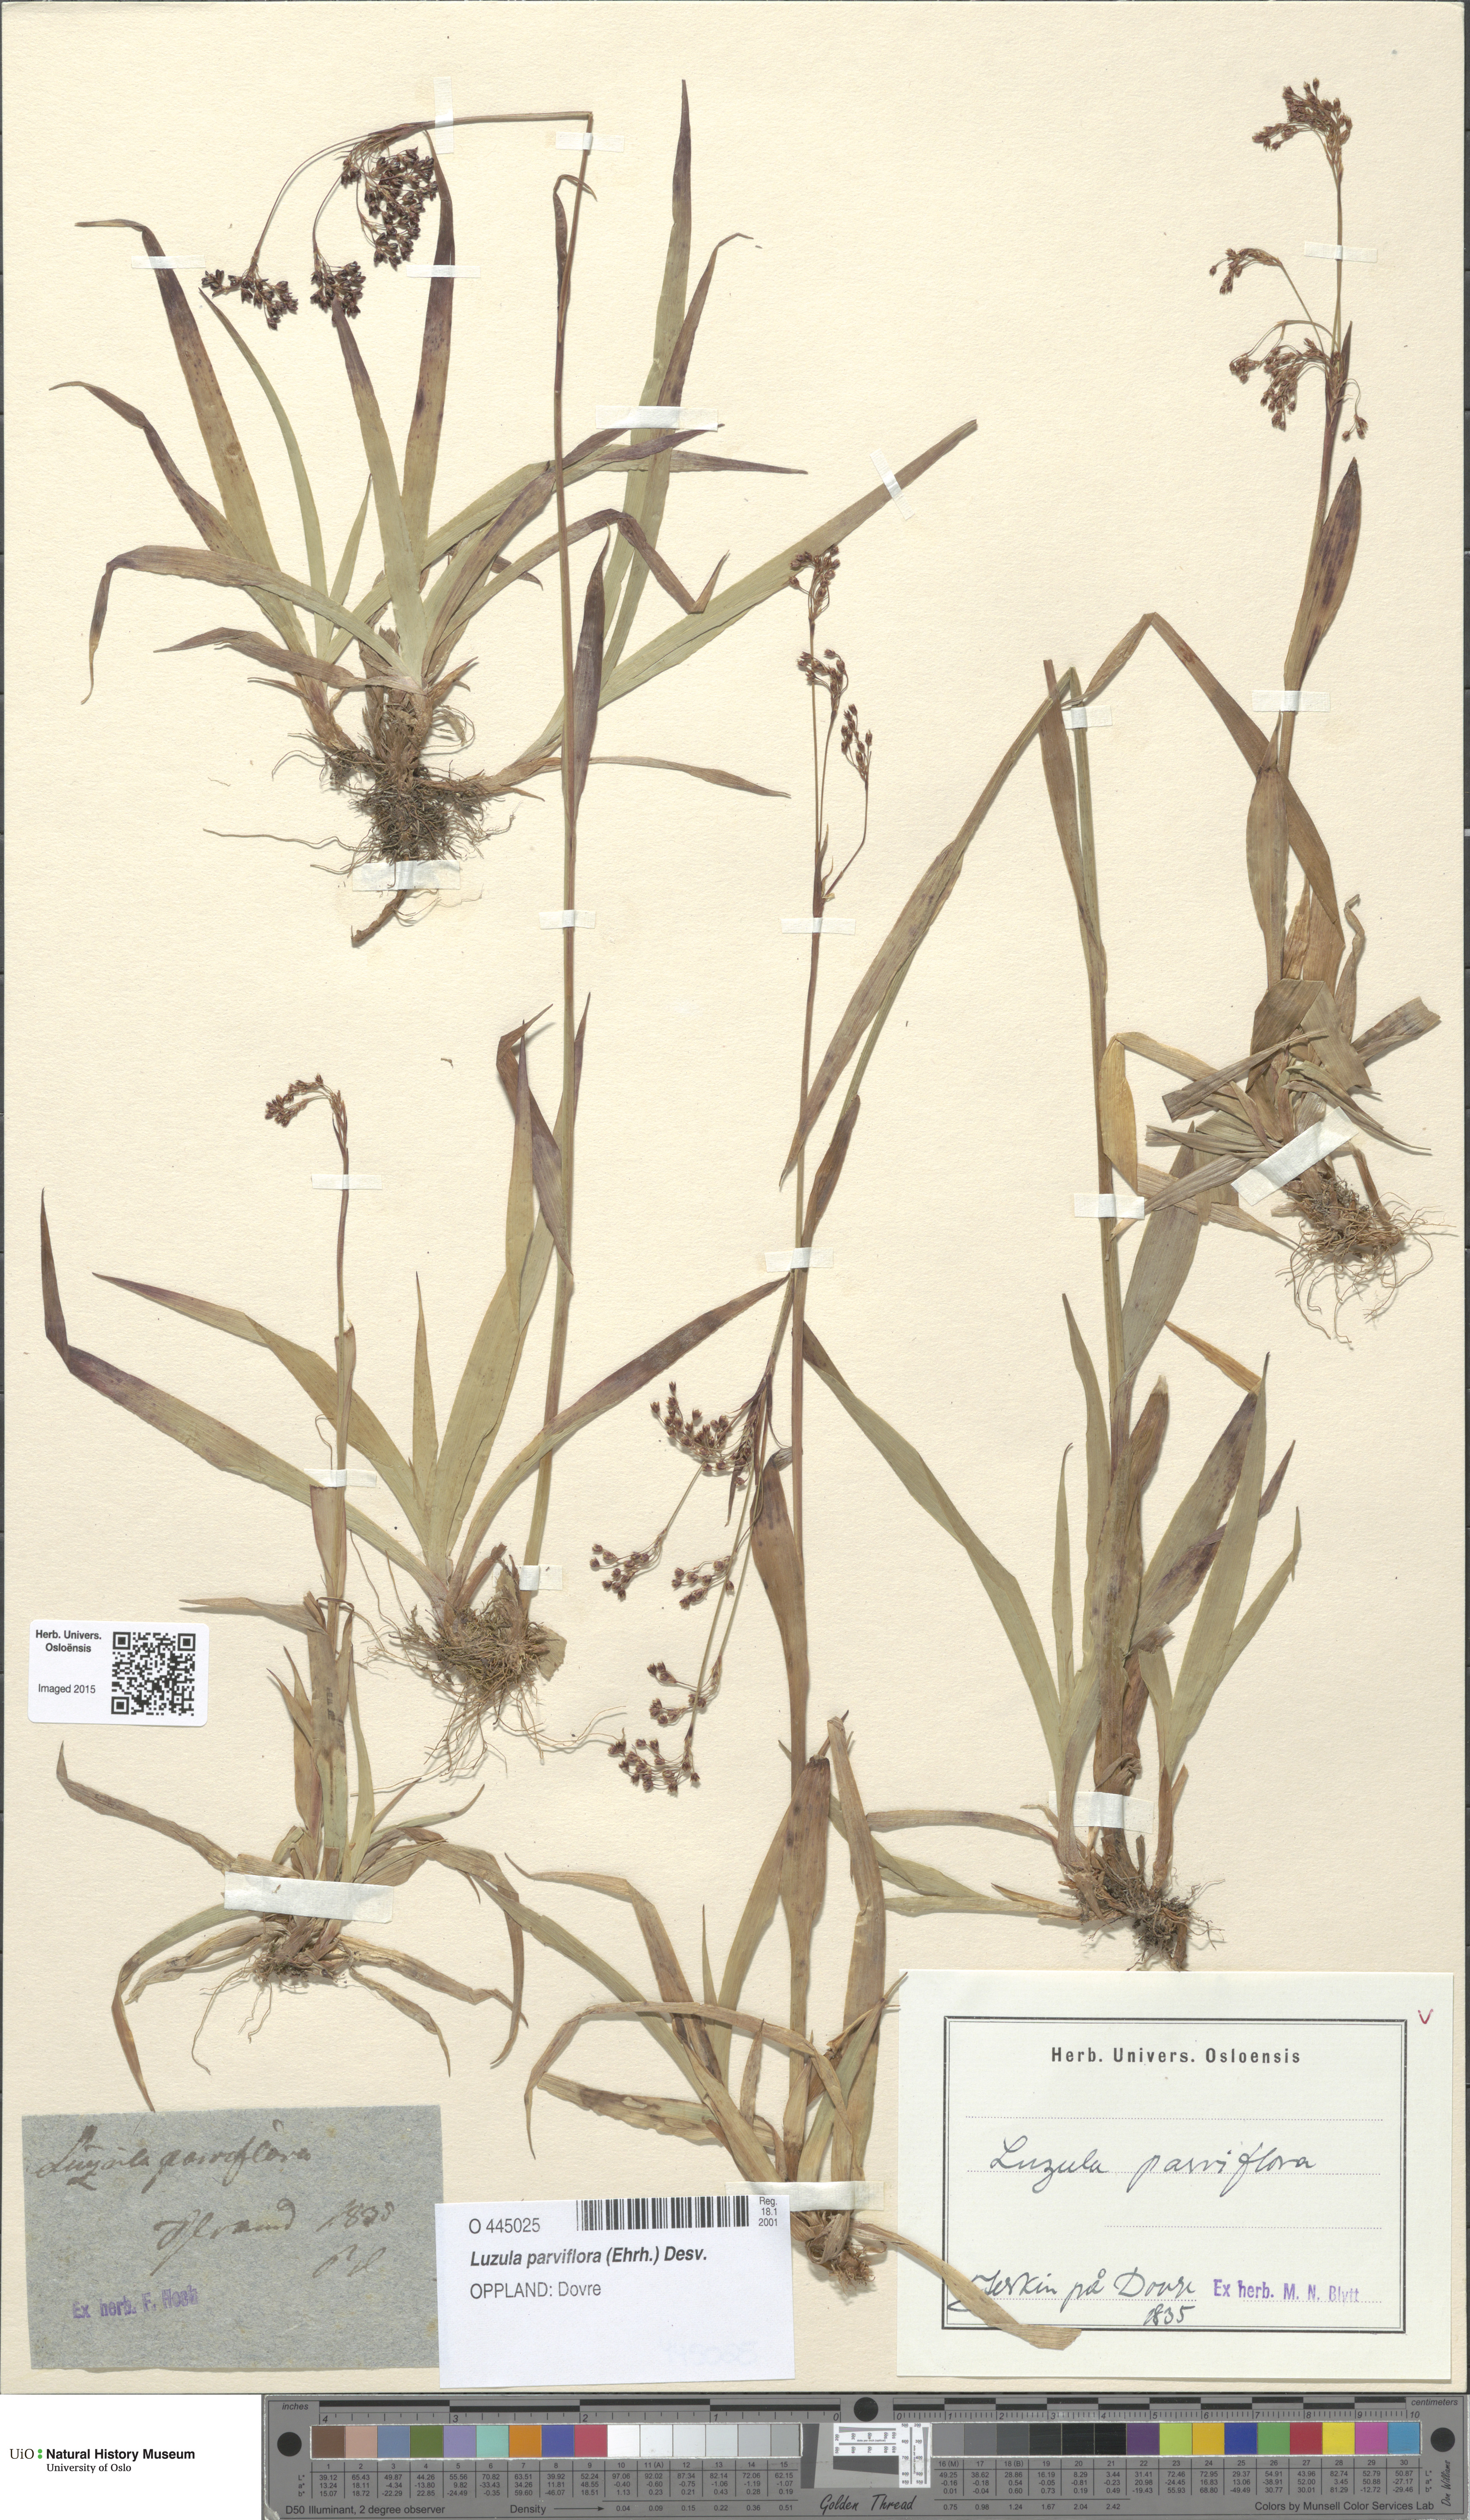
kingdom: Plantae
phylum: Tracheophyta
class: Liliopsida
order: Poales
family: Juncaceae
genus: Luzula
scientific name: Luzula parviflora
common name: Millet woodrush
